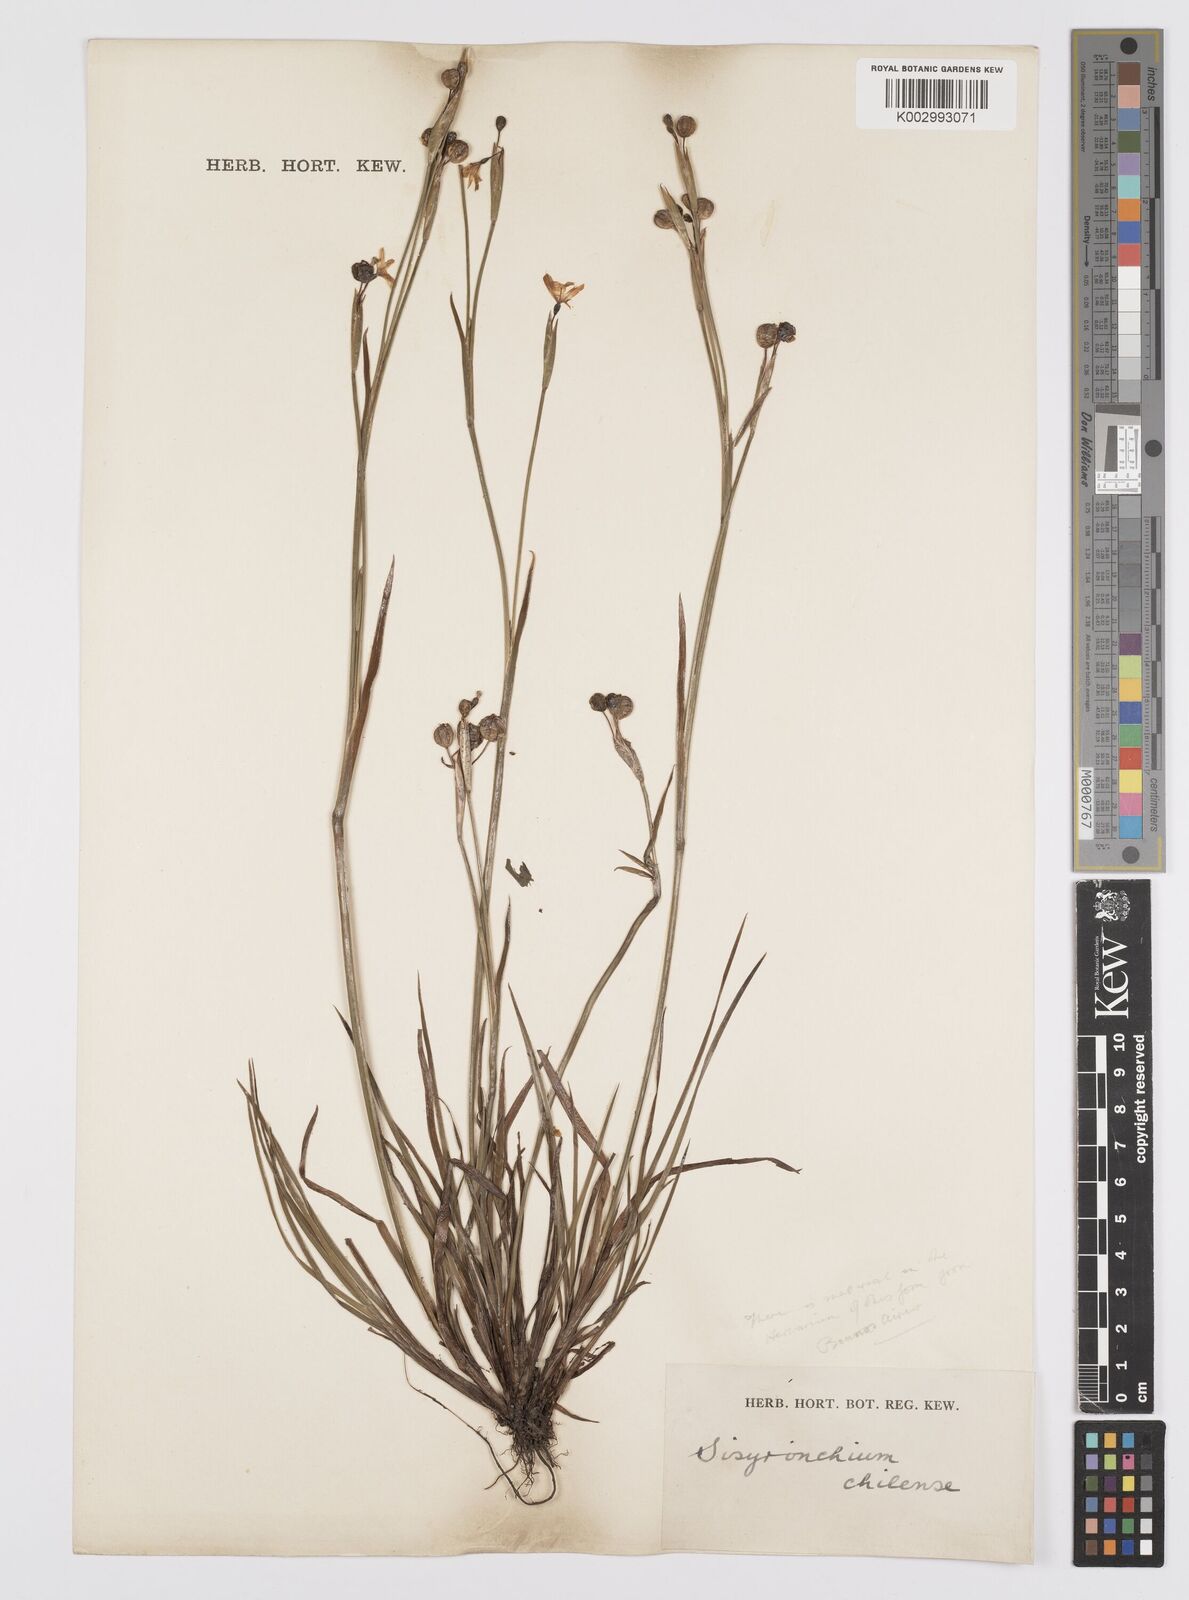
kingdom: Plantae
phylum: Tracheophyta
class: Liliopsida
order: Asparagales
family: Iridaceae
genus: Sisyrinchium
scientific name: Sisyrinchium chilense
